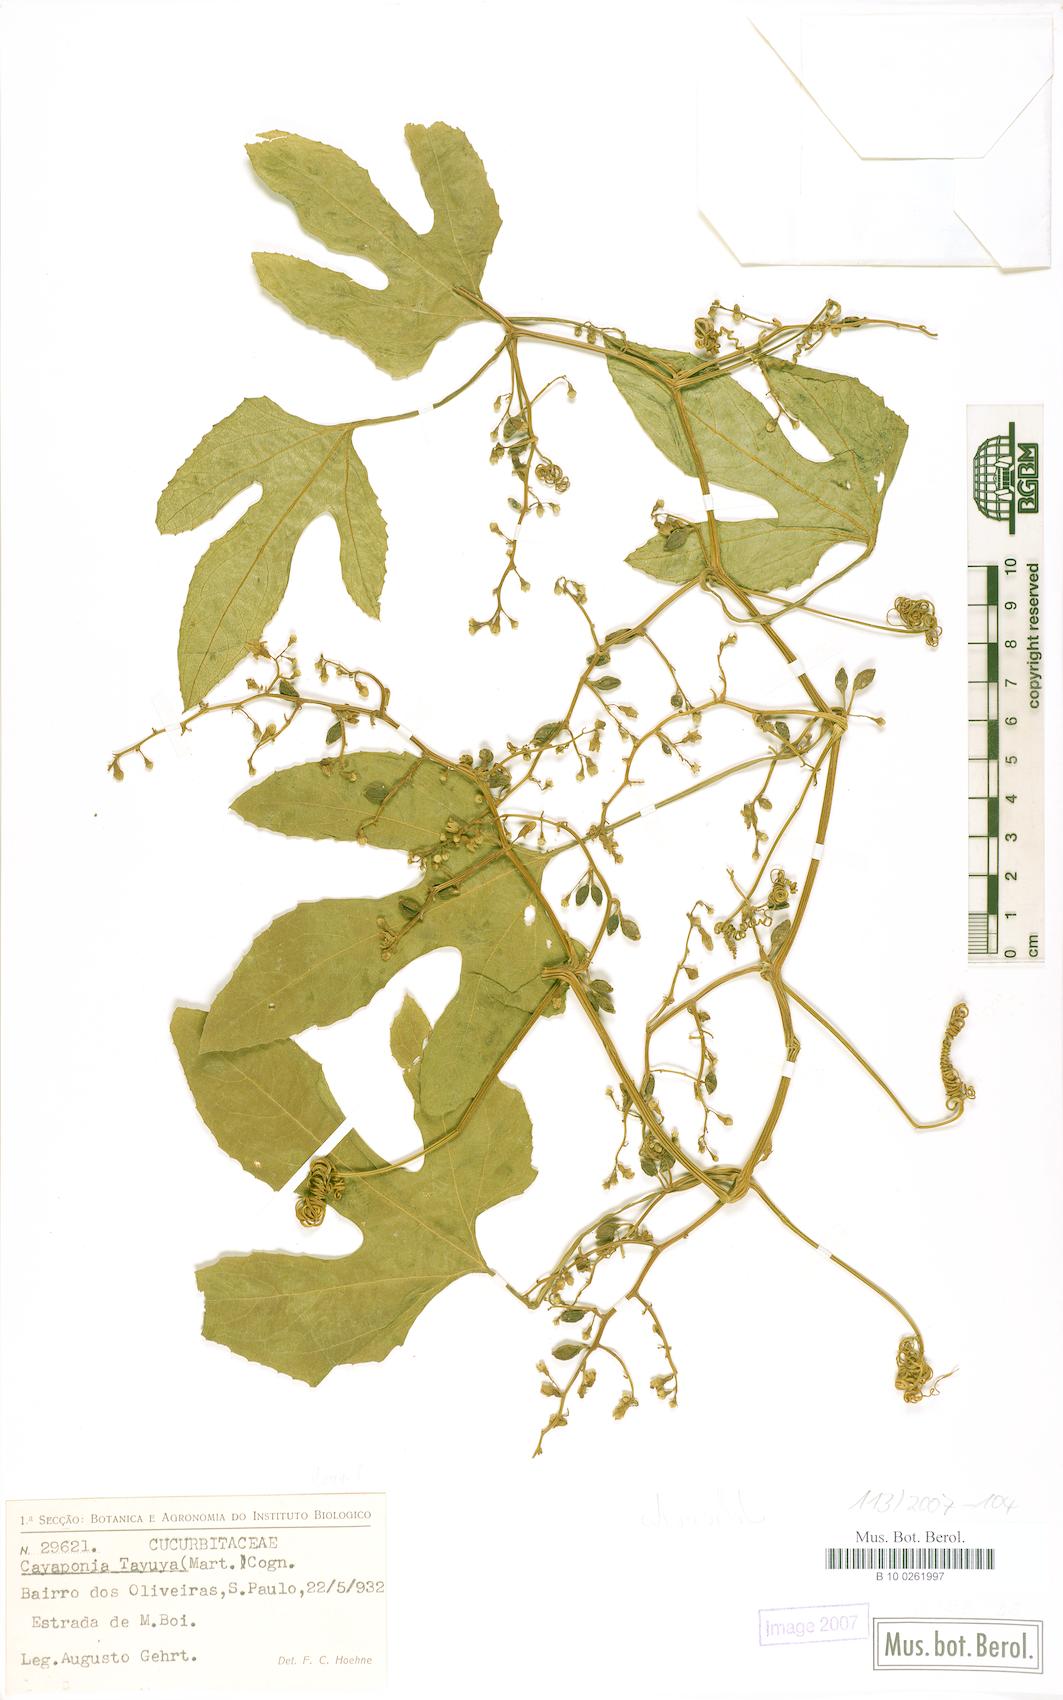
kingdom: Plantae
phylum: Tracheophyta
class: Magnoliopsida
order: Cucurbitales
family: Cucurbitaceae
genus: Cayaponia
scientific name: Cayaponia martiana
